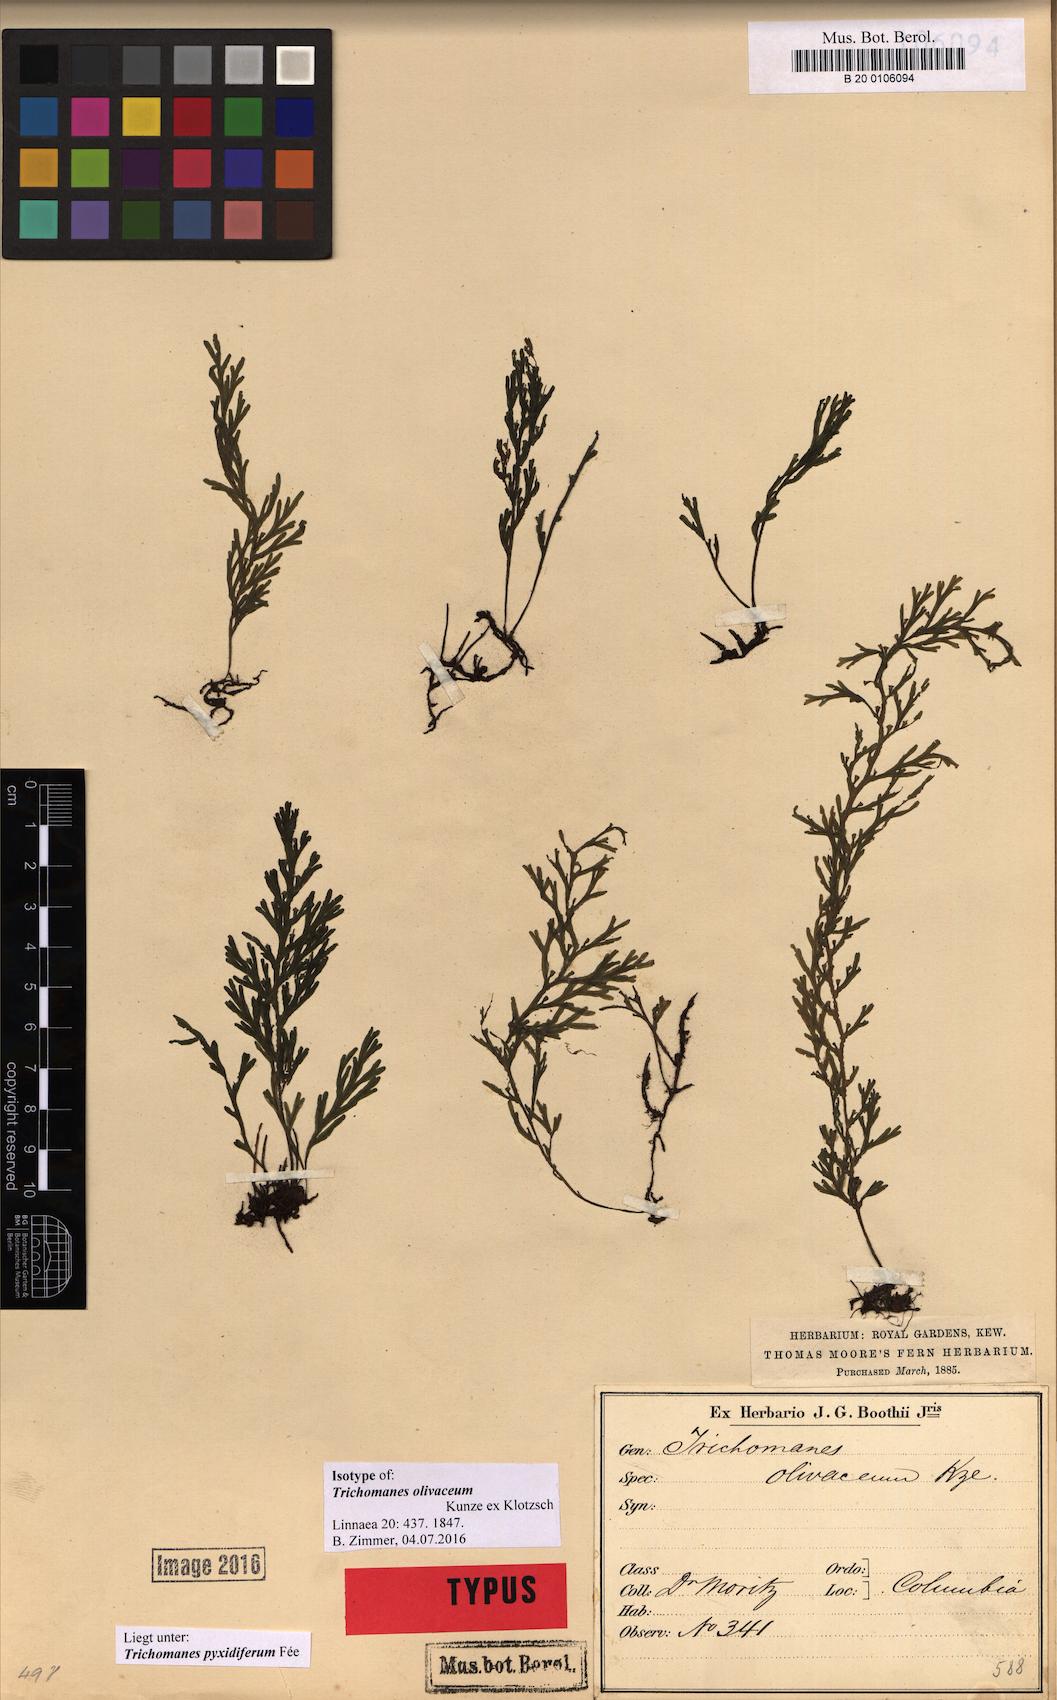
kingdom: Plantae
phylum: Tracheophyta
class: Polypodiopsida
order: Hymenophyllales
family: Hymenophyllaceae
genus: Polyphlebium
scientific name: Polyphlebium pyxidiferum
